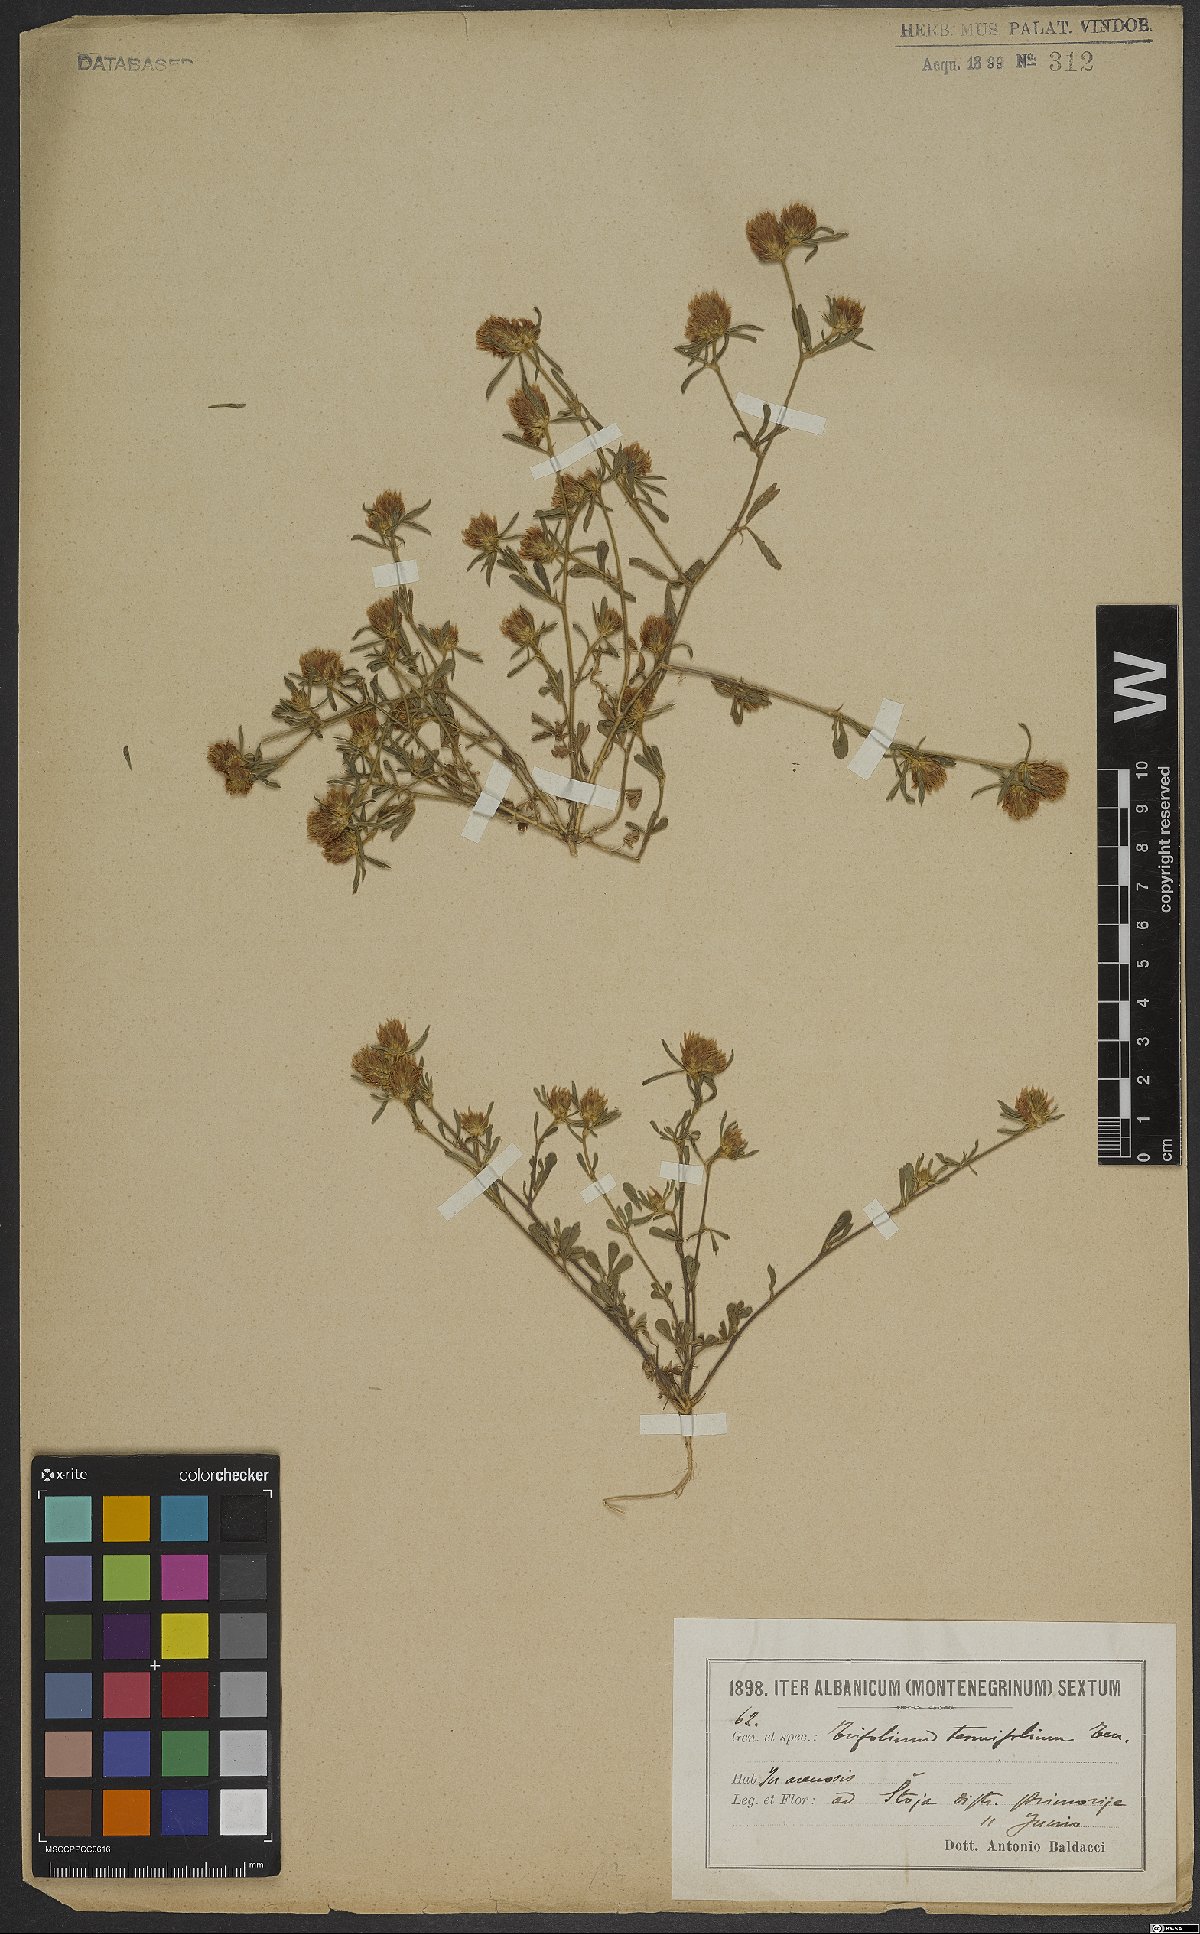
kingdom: Plantae
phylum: Tracheophyta
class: Magnoliopsida
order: Fabales
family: Fabaceae
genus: Trifolium
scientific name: Trifolium tenuifolium
